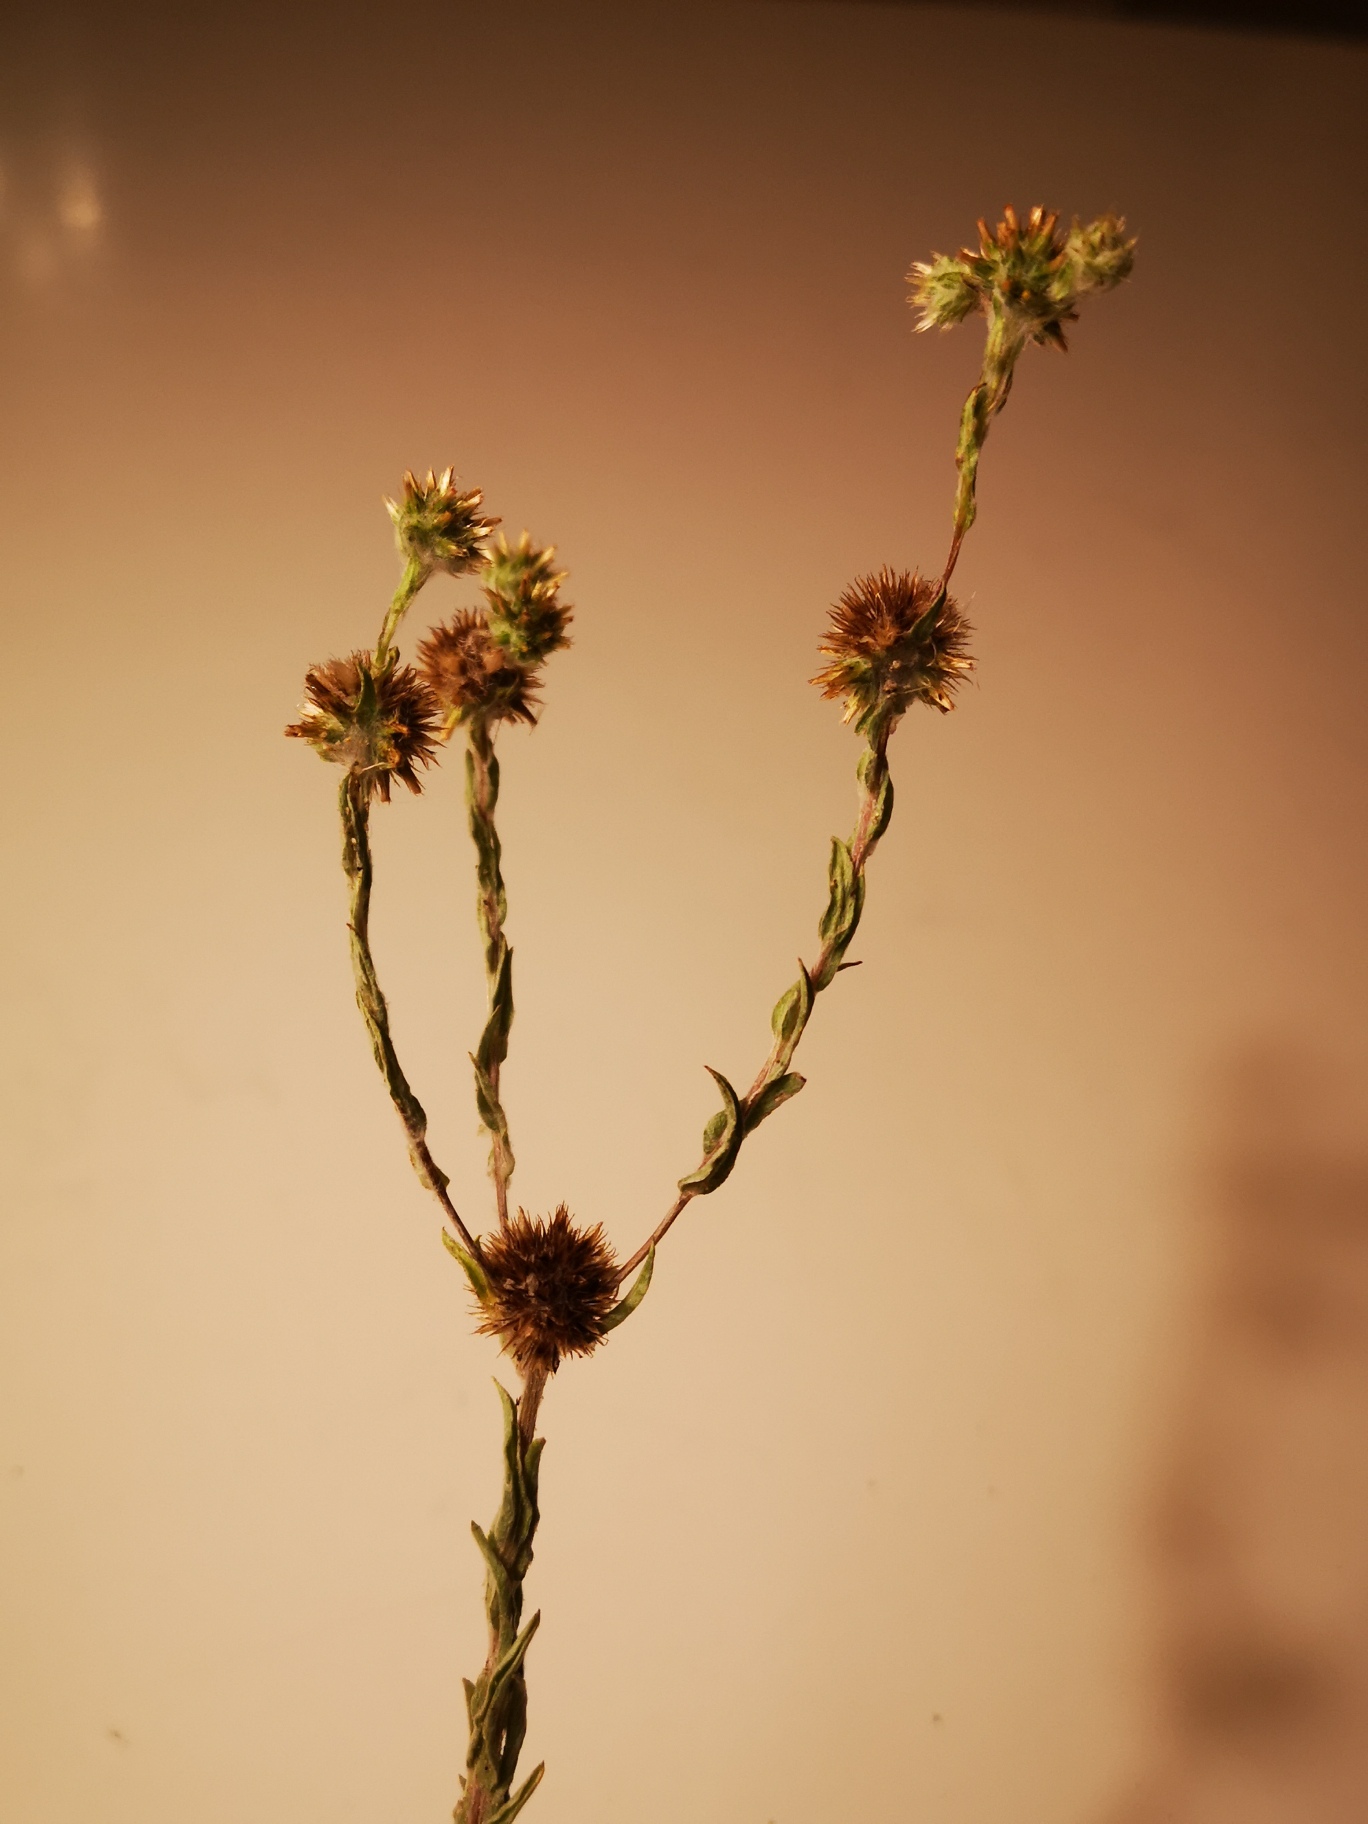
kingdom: Plantae
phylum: Tracheophyta
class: Magnoliopsida
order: Asterales
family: Asteraceae
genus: Filago
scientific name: Filago germanica
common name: Kugle-museurt
